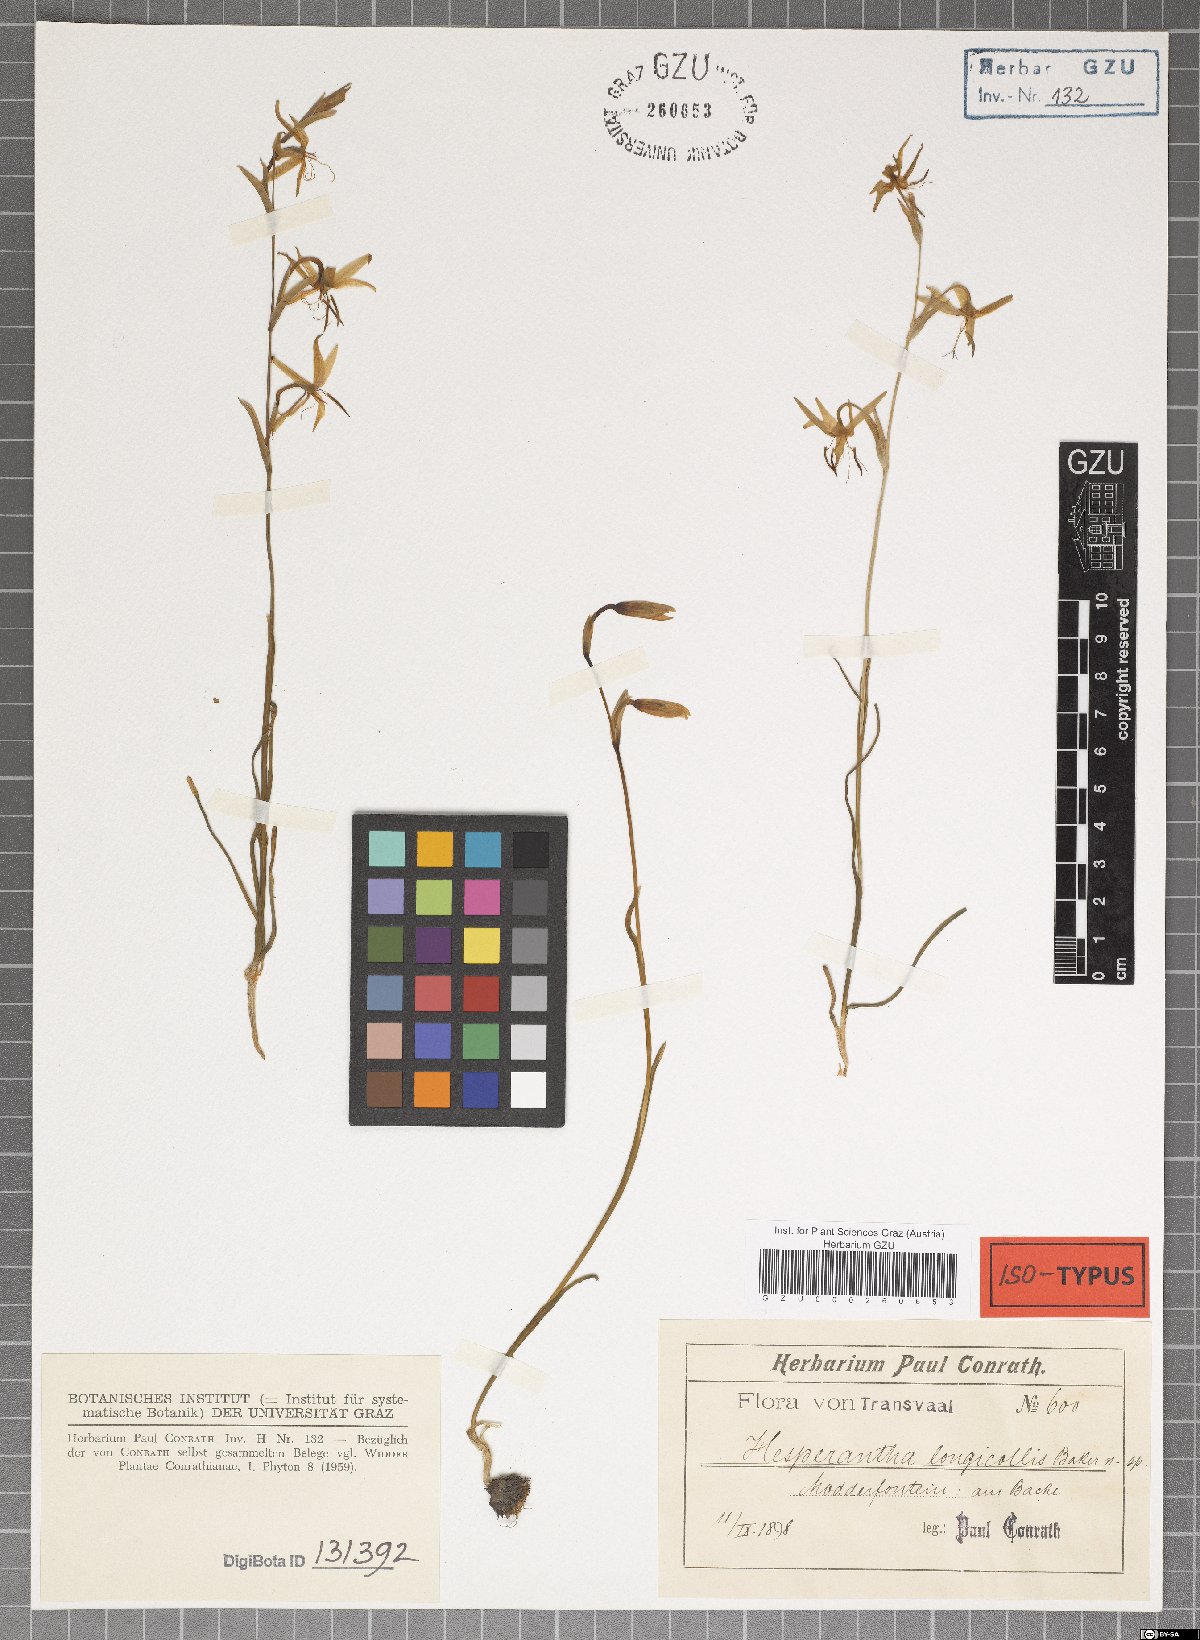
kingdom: Plantae
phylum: Tracheophyta
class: Liliopsida
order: Asparagales
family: Iridaceae
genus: Hesperantha
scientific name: Hesperantha longicollis
